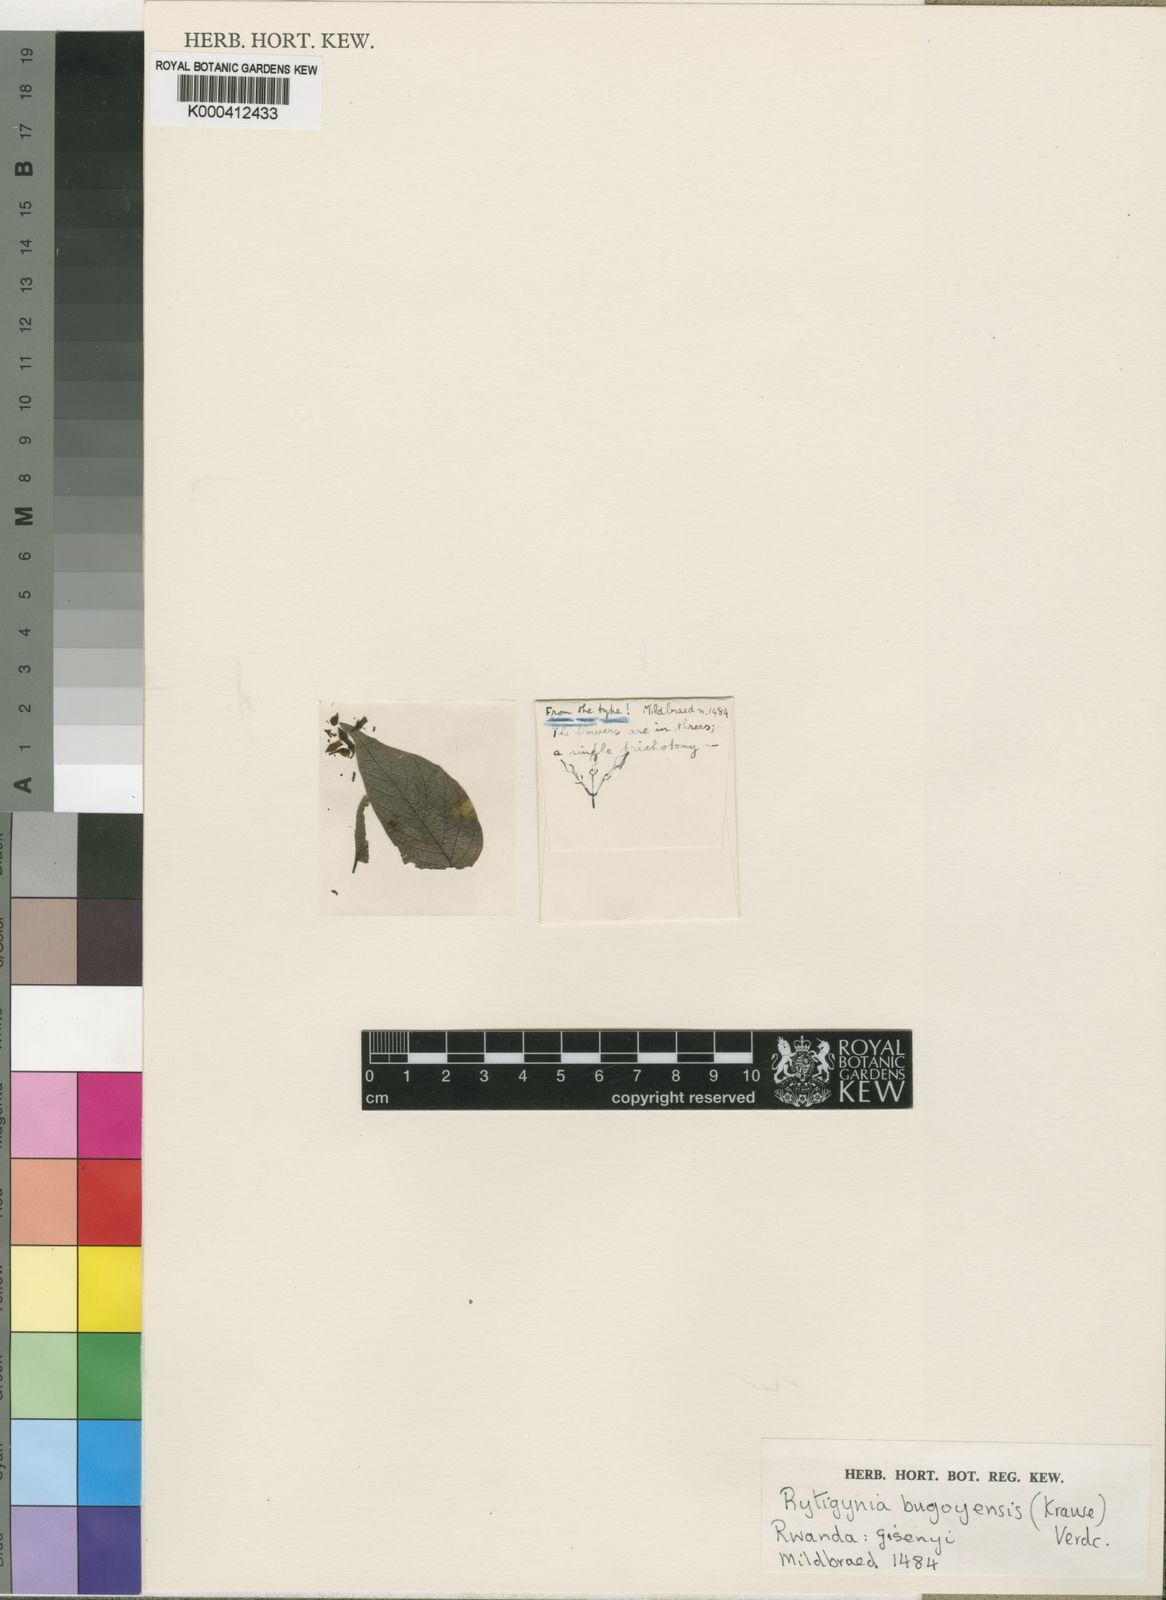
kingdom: Plantae
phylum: Tracheophyta
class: Magnoliopsida
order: Gentianales
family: Rubiaceae
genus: Rytigynia
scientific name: Rytigynia bugoyensis
